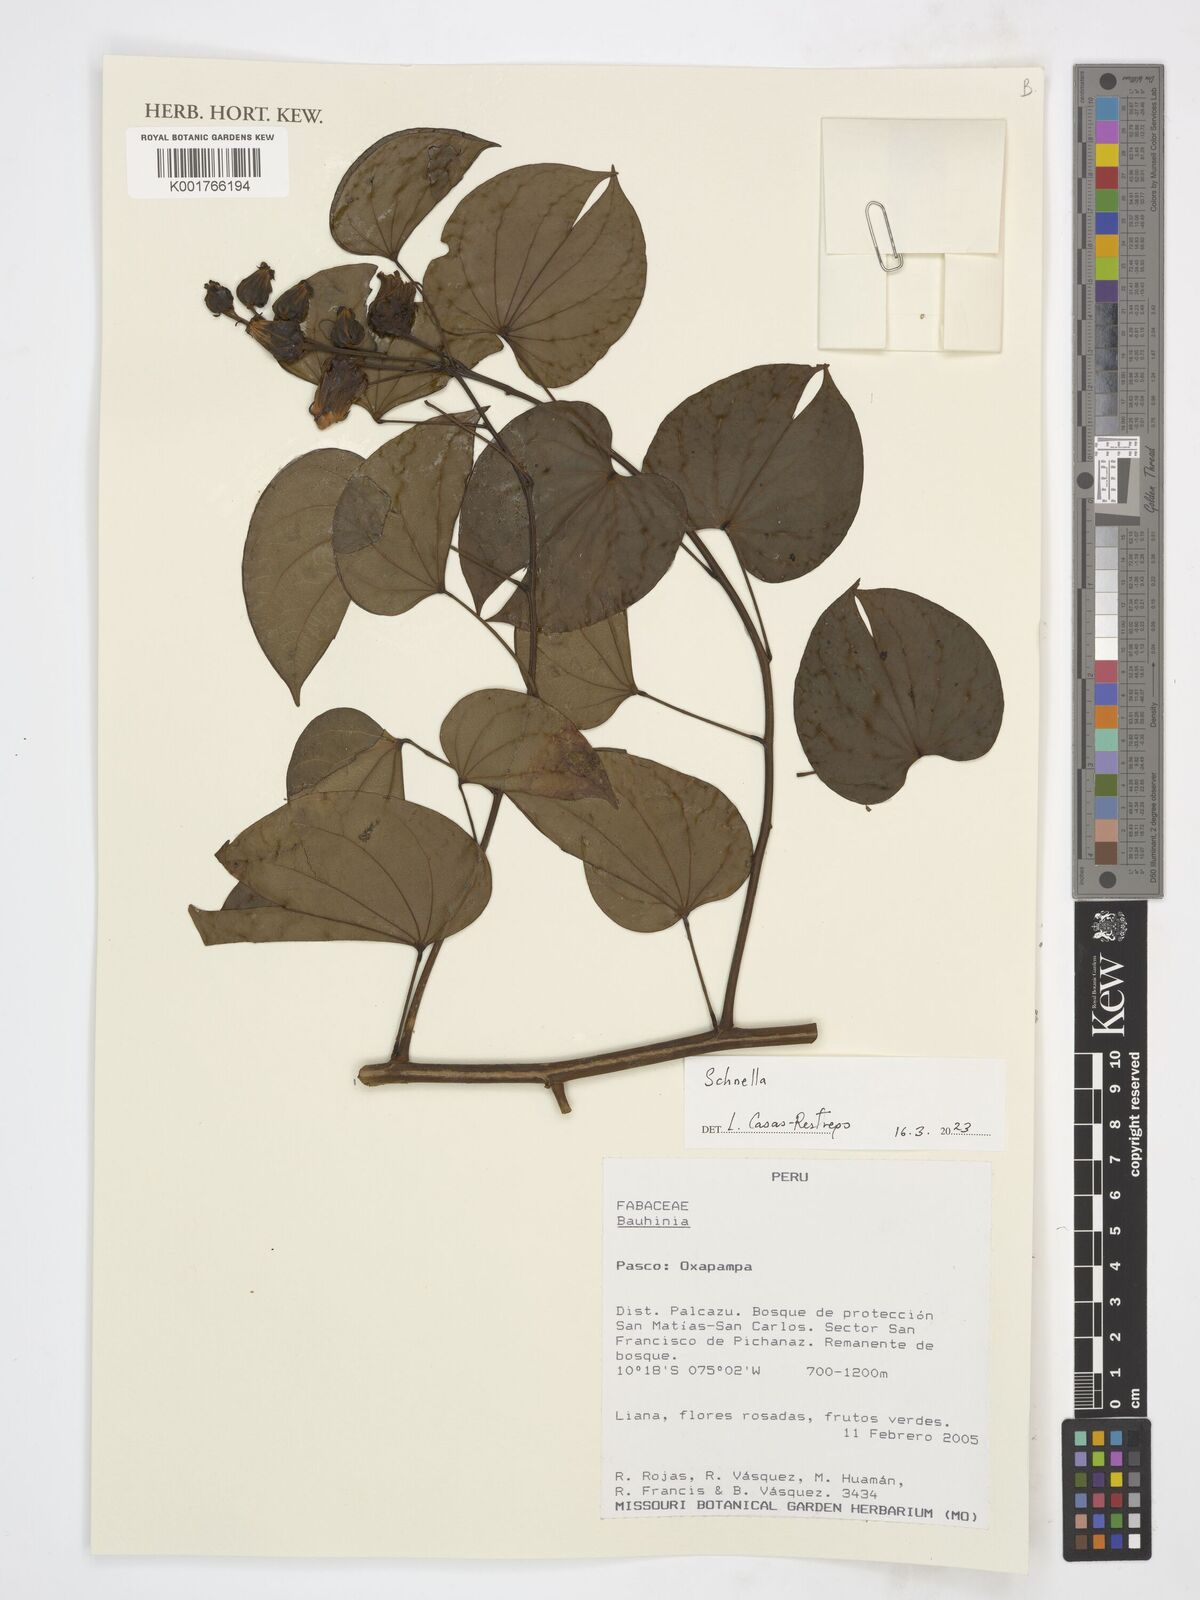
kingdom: Plantae
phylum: Tracheophyta
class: Magnoliopsida
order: Fabales
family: Fabaceae
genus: Schnella
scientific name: Schnella
